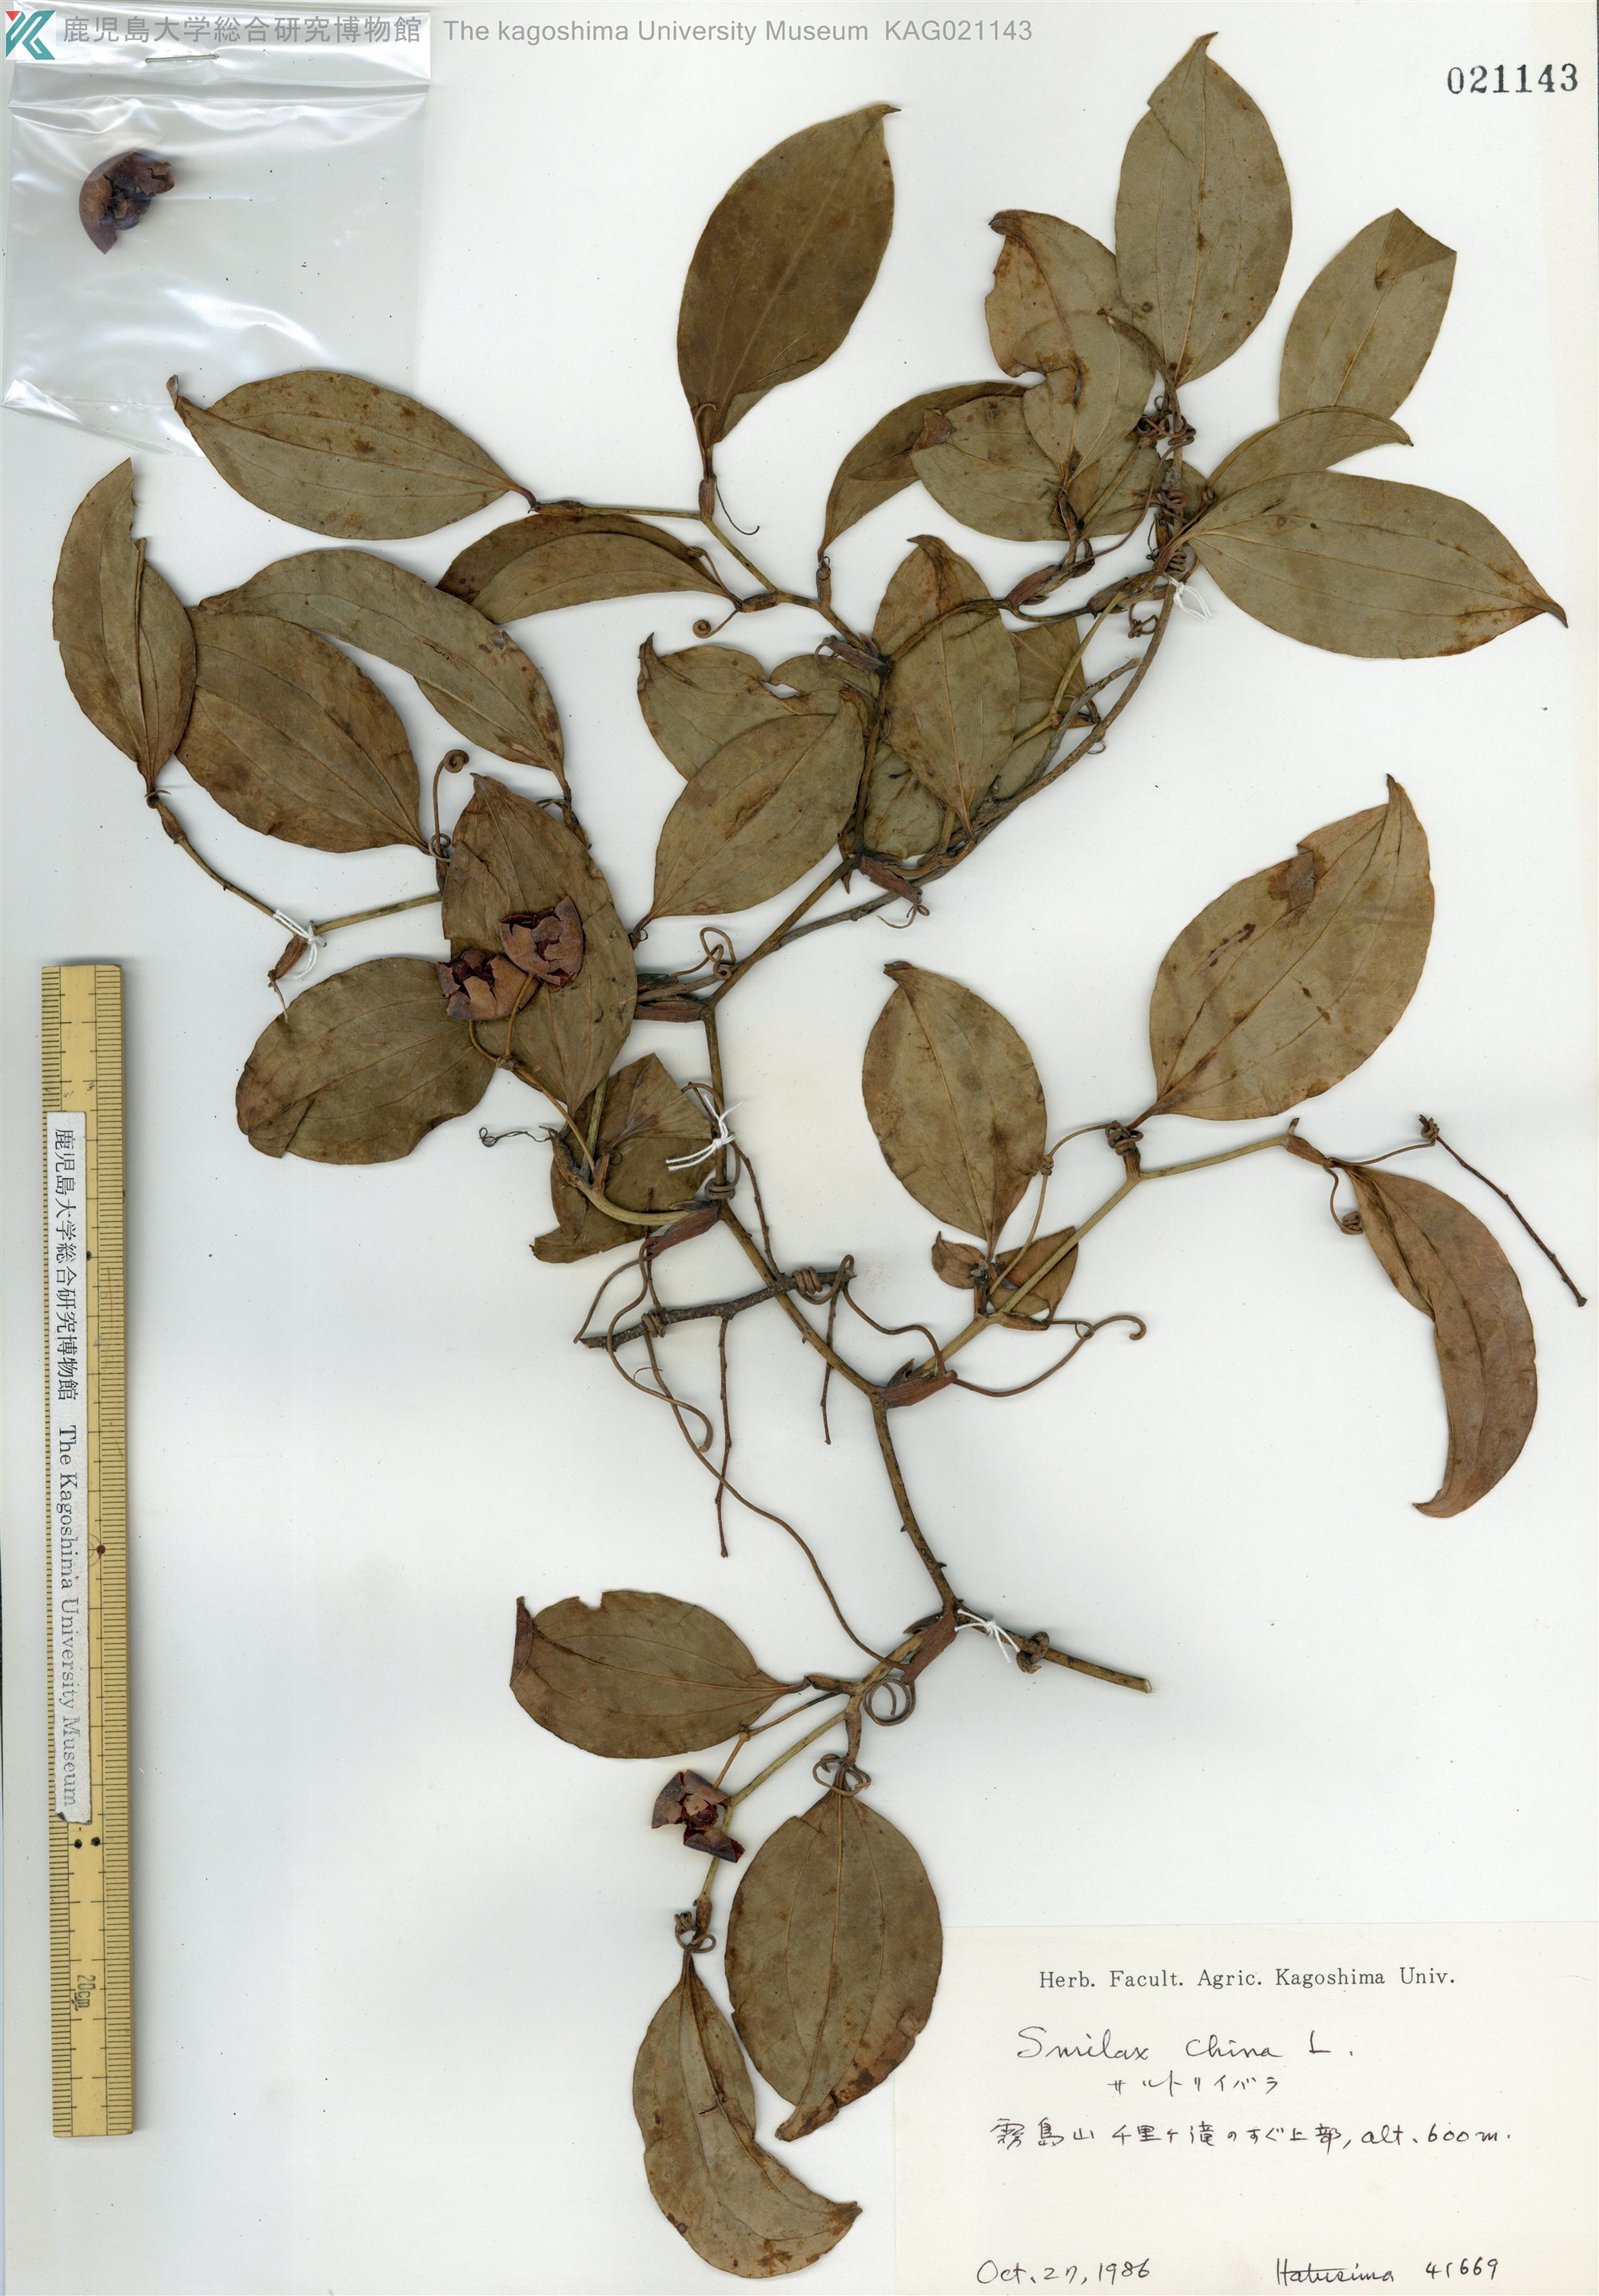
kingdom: Plantae
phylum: Tracheophyta
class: Liliopsida
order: Liliales
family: Smilacaceae
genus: Smilax
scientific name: Smilax china
